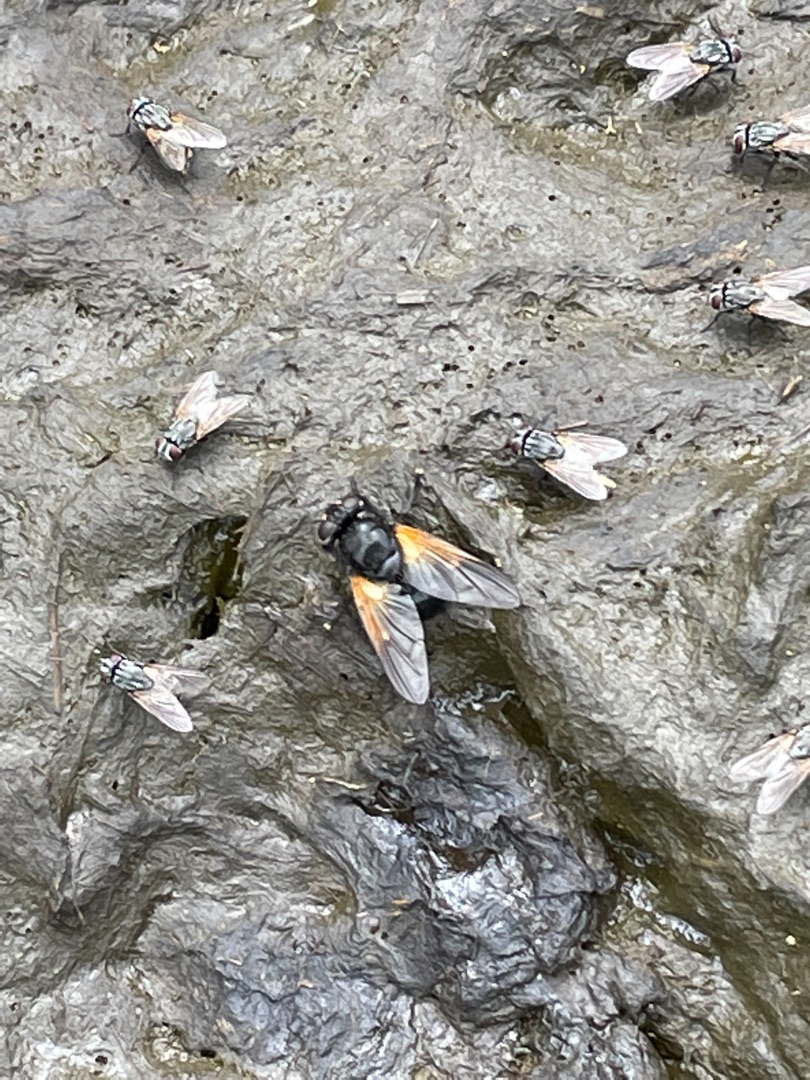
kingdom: Animalia
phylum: Arthropoda
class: Insecta
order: Diptera
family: Muscidae
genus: Mesembrina
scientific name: Mesembrina meridiana
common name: Gulvinget flue
